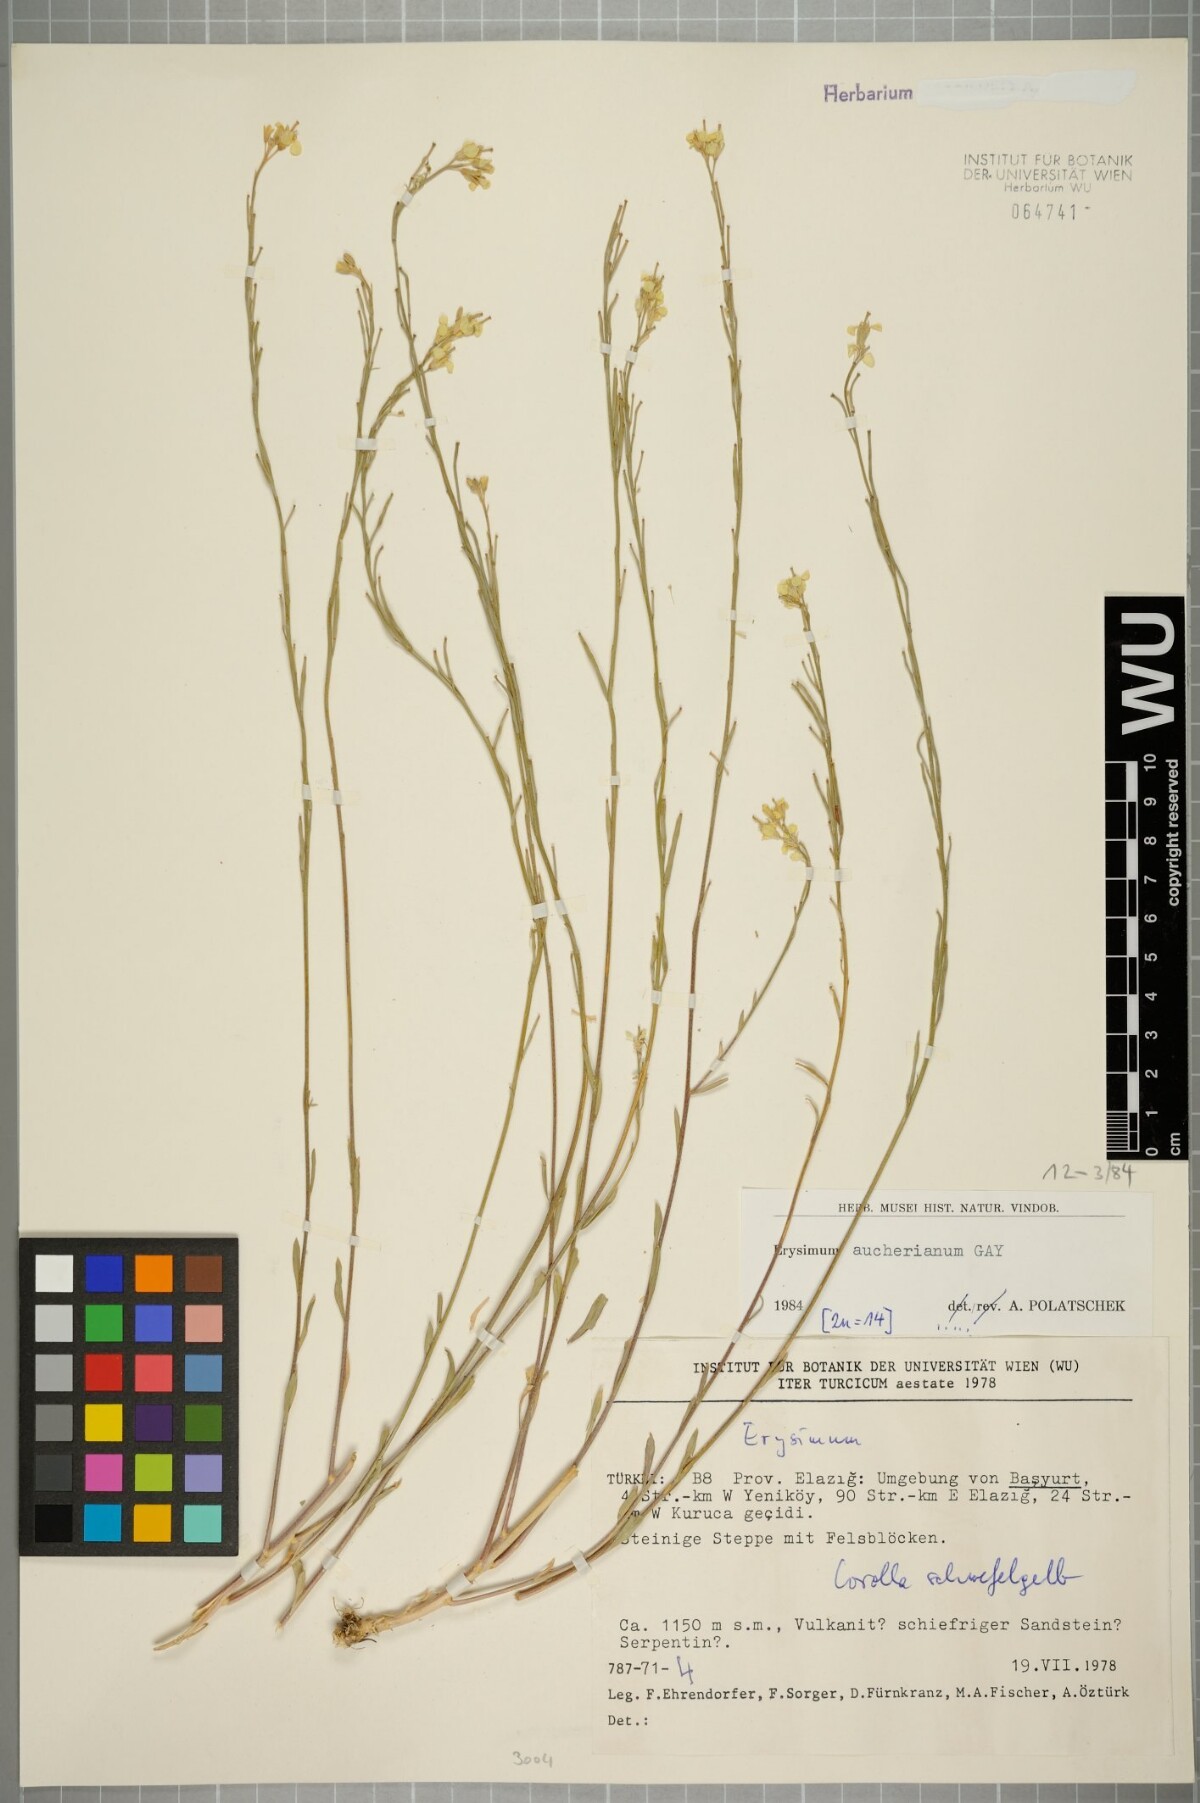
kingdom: Plantae
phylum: Tracheophyta
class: Magnoliopsida
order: Brassicales
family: Brassicaceae
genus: Erysimum
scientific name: Erysimum aucherianum
